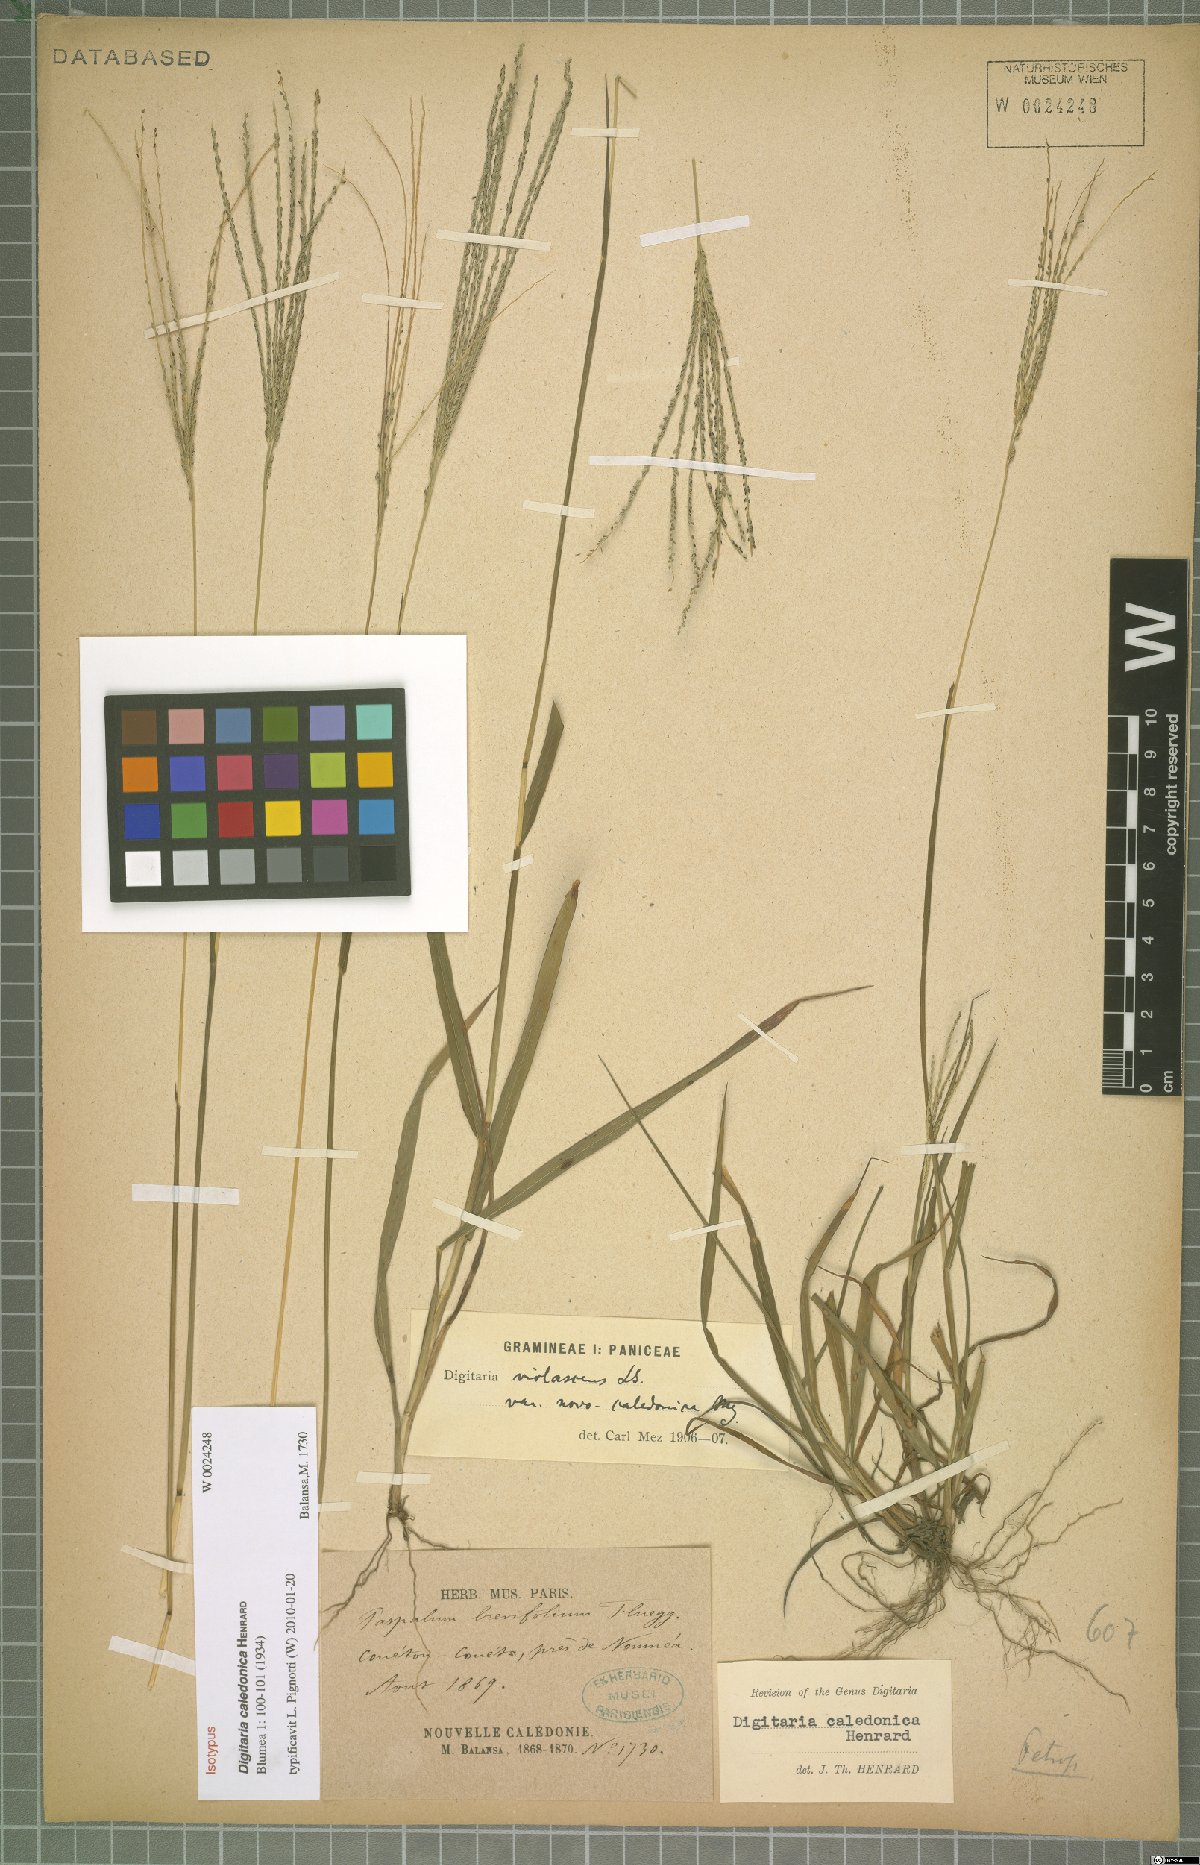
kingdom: Plantae
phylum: Tracheophyta
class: Liliopsida
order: Poales
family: Poaceae
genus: Digitaria
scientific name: Digitaria caledonica
